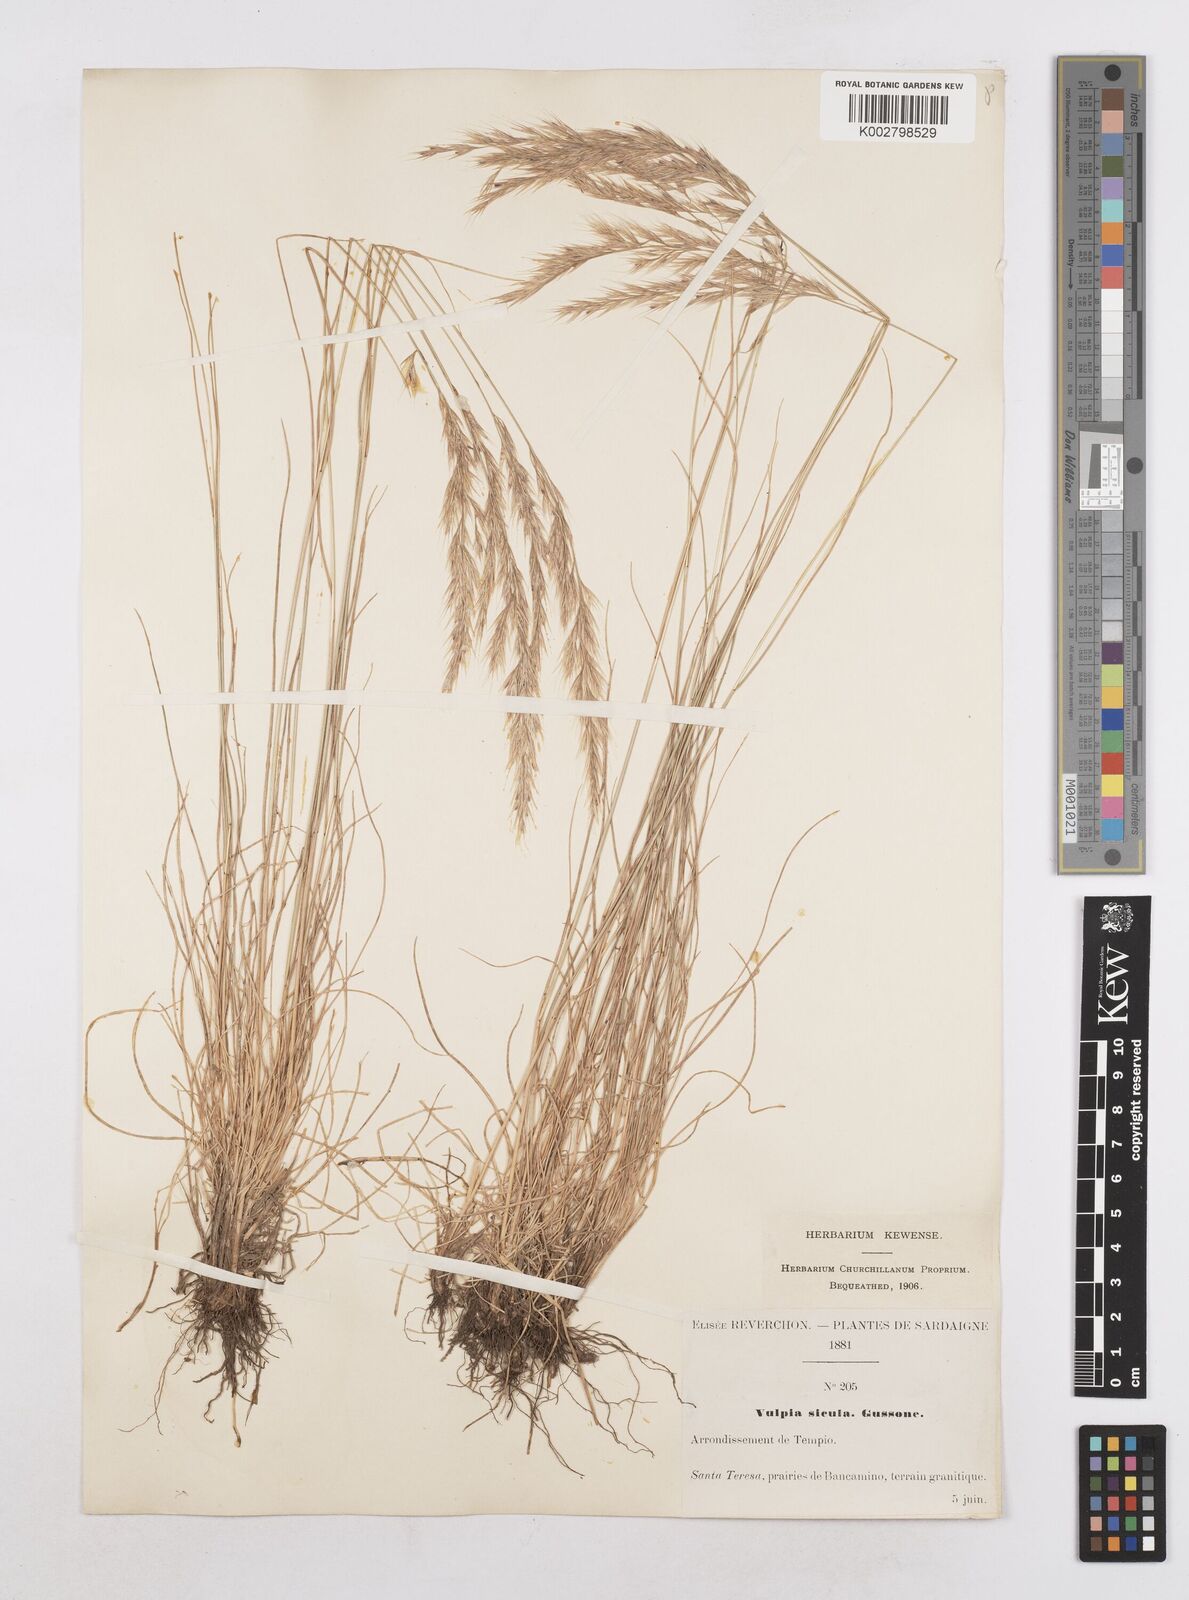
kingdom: Plantae
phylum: Tracheophyta
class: Liliopsida
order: Poales
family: Poaceae
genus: Festuca
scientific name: Festuca sicula
